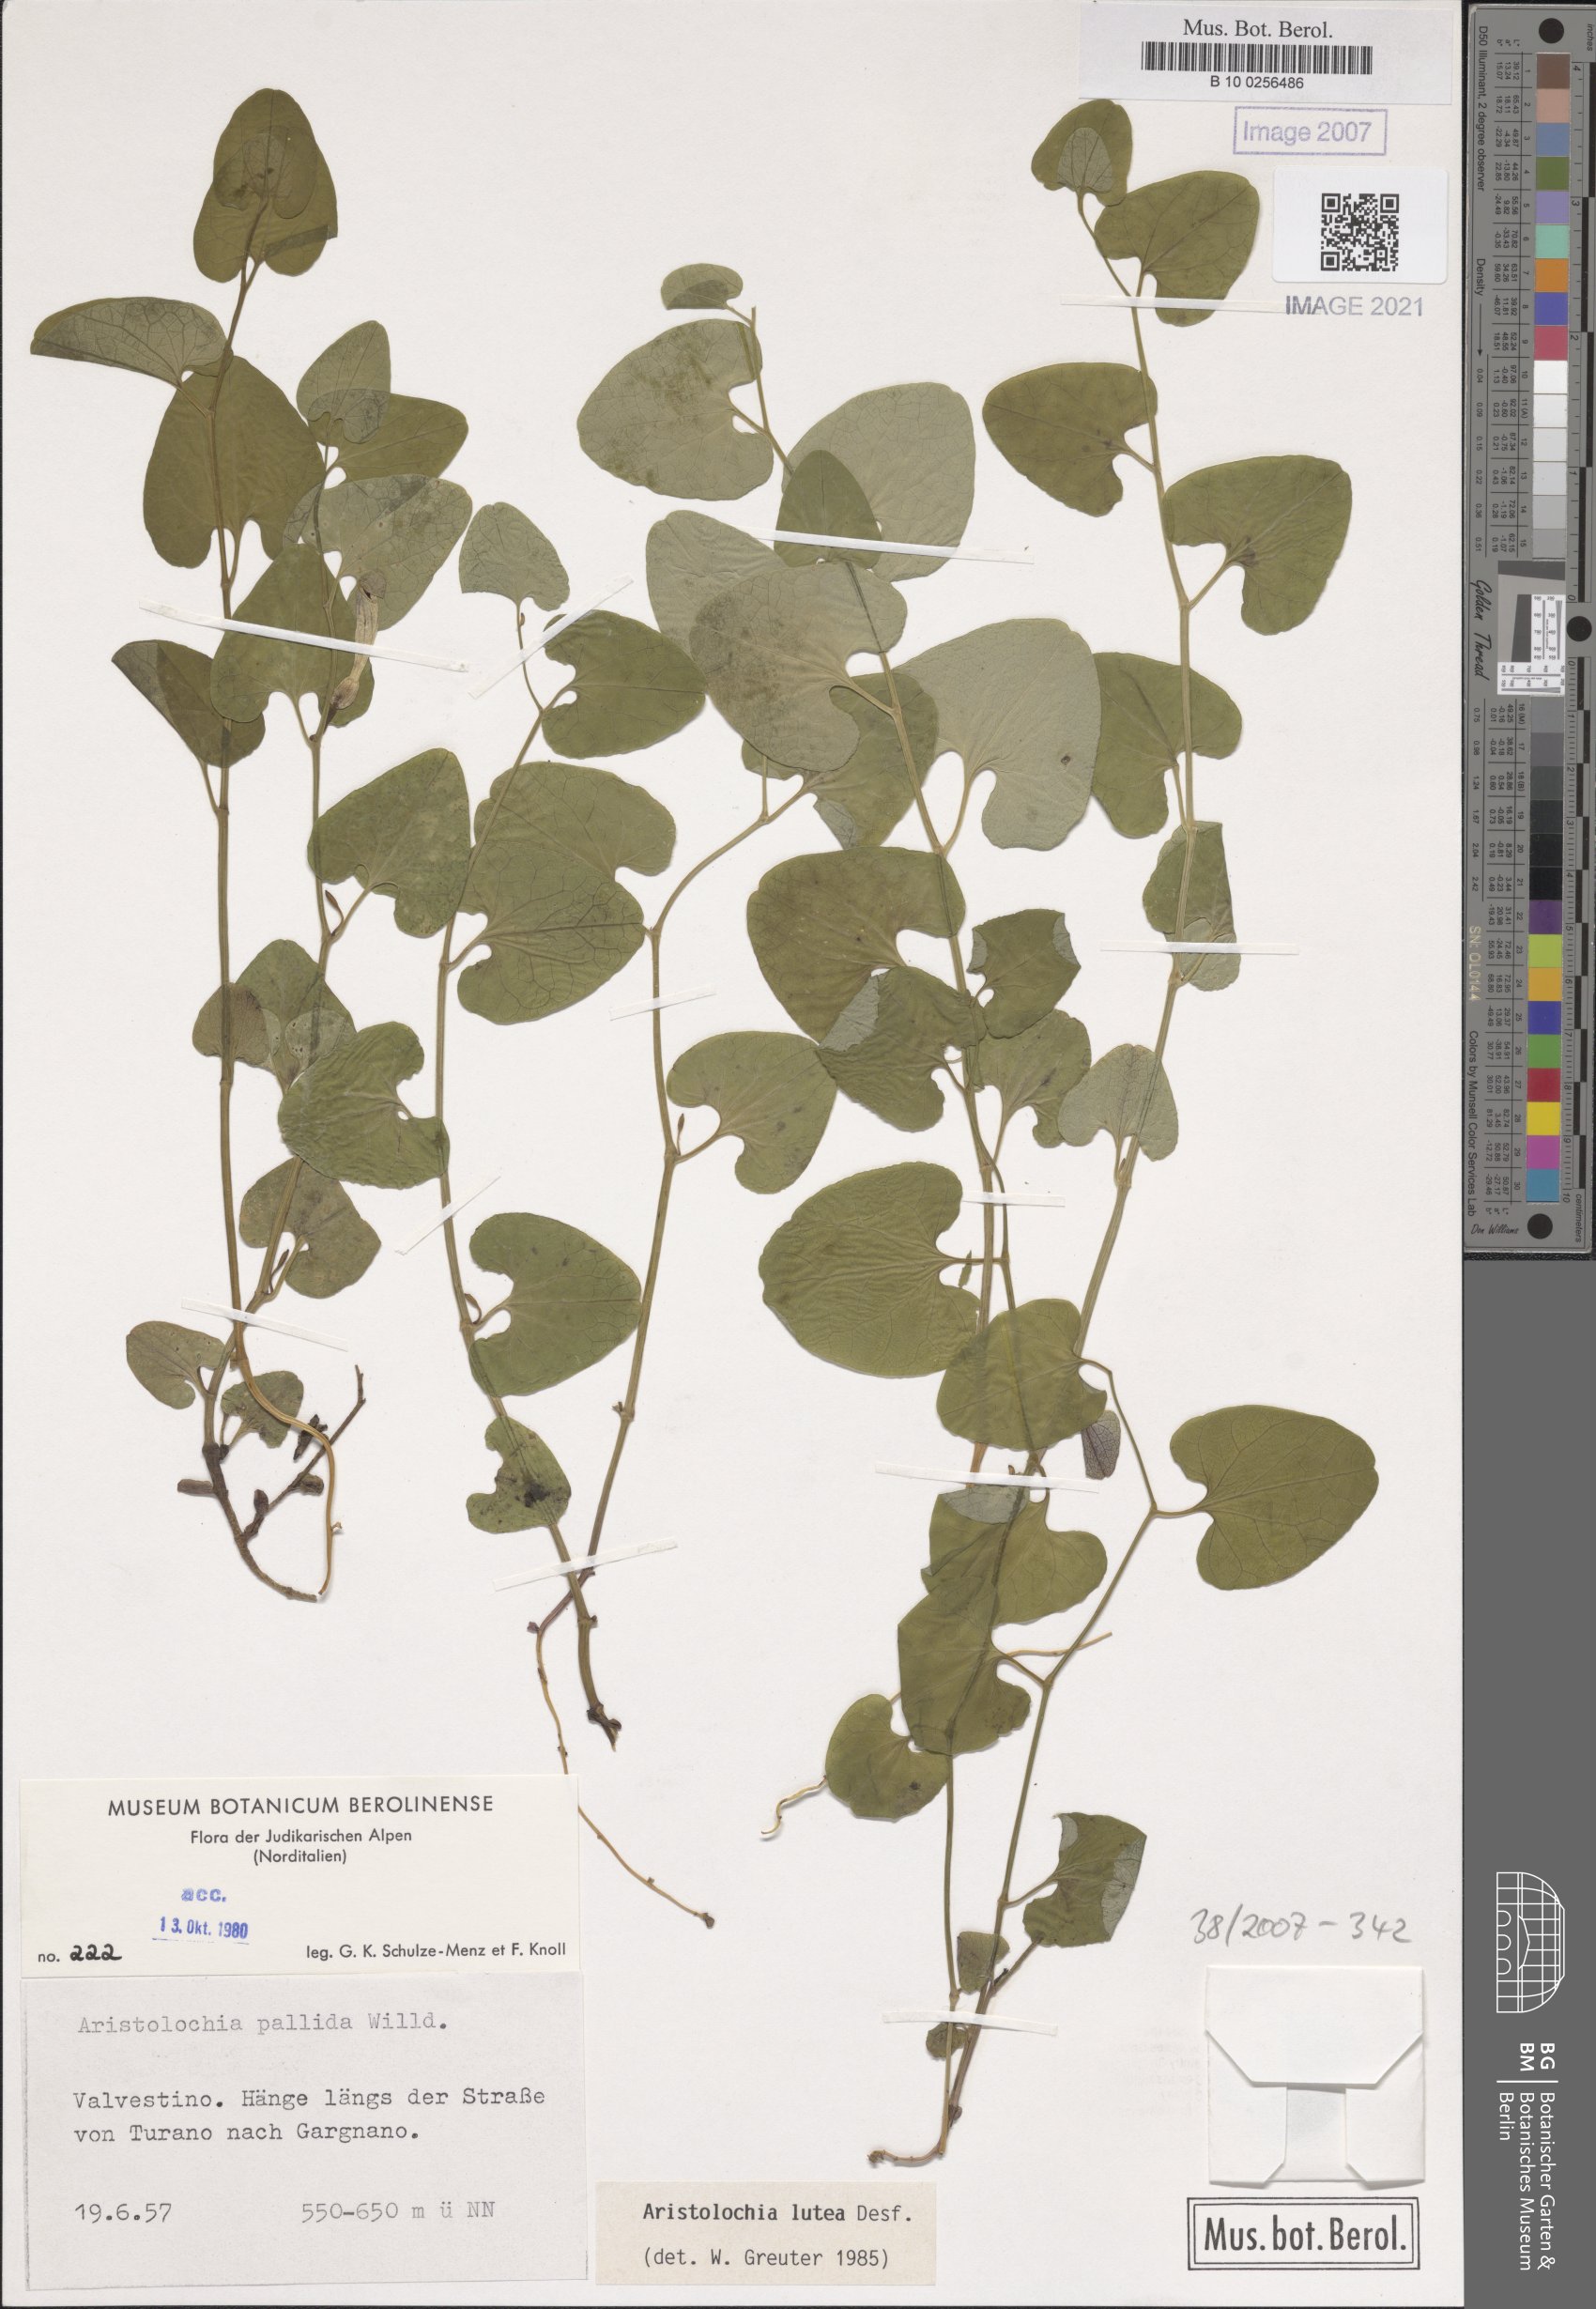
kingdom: Plantae
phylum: Tracheophyta
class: Magnoliopsida
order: Piperales
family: Aristolochiaceae
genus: Aristolochia
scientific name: Aristolochia lutea
